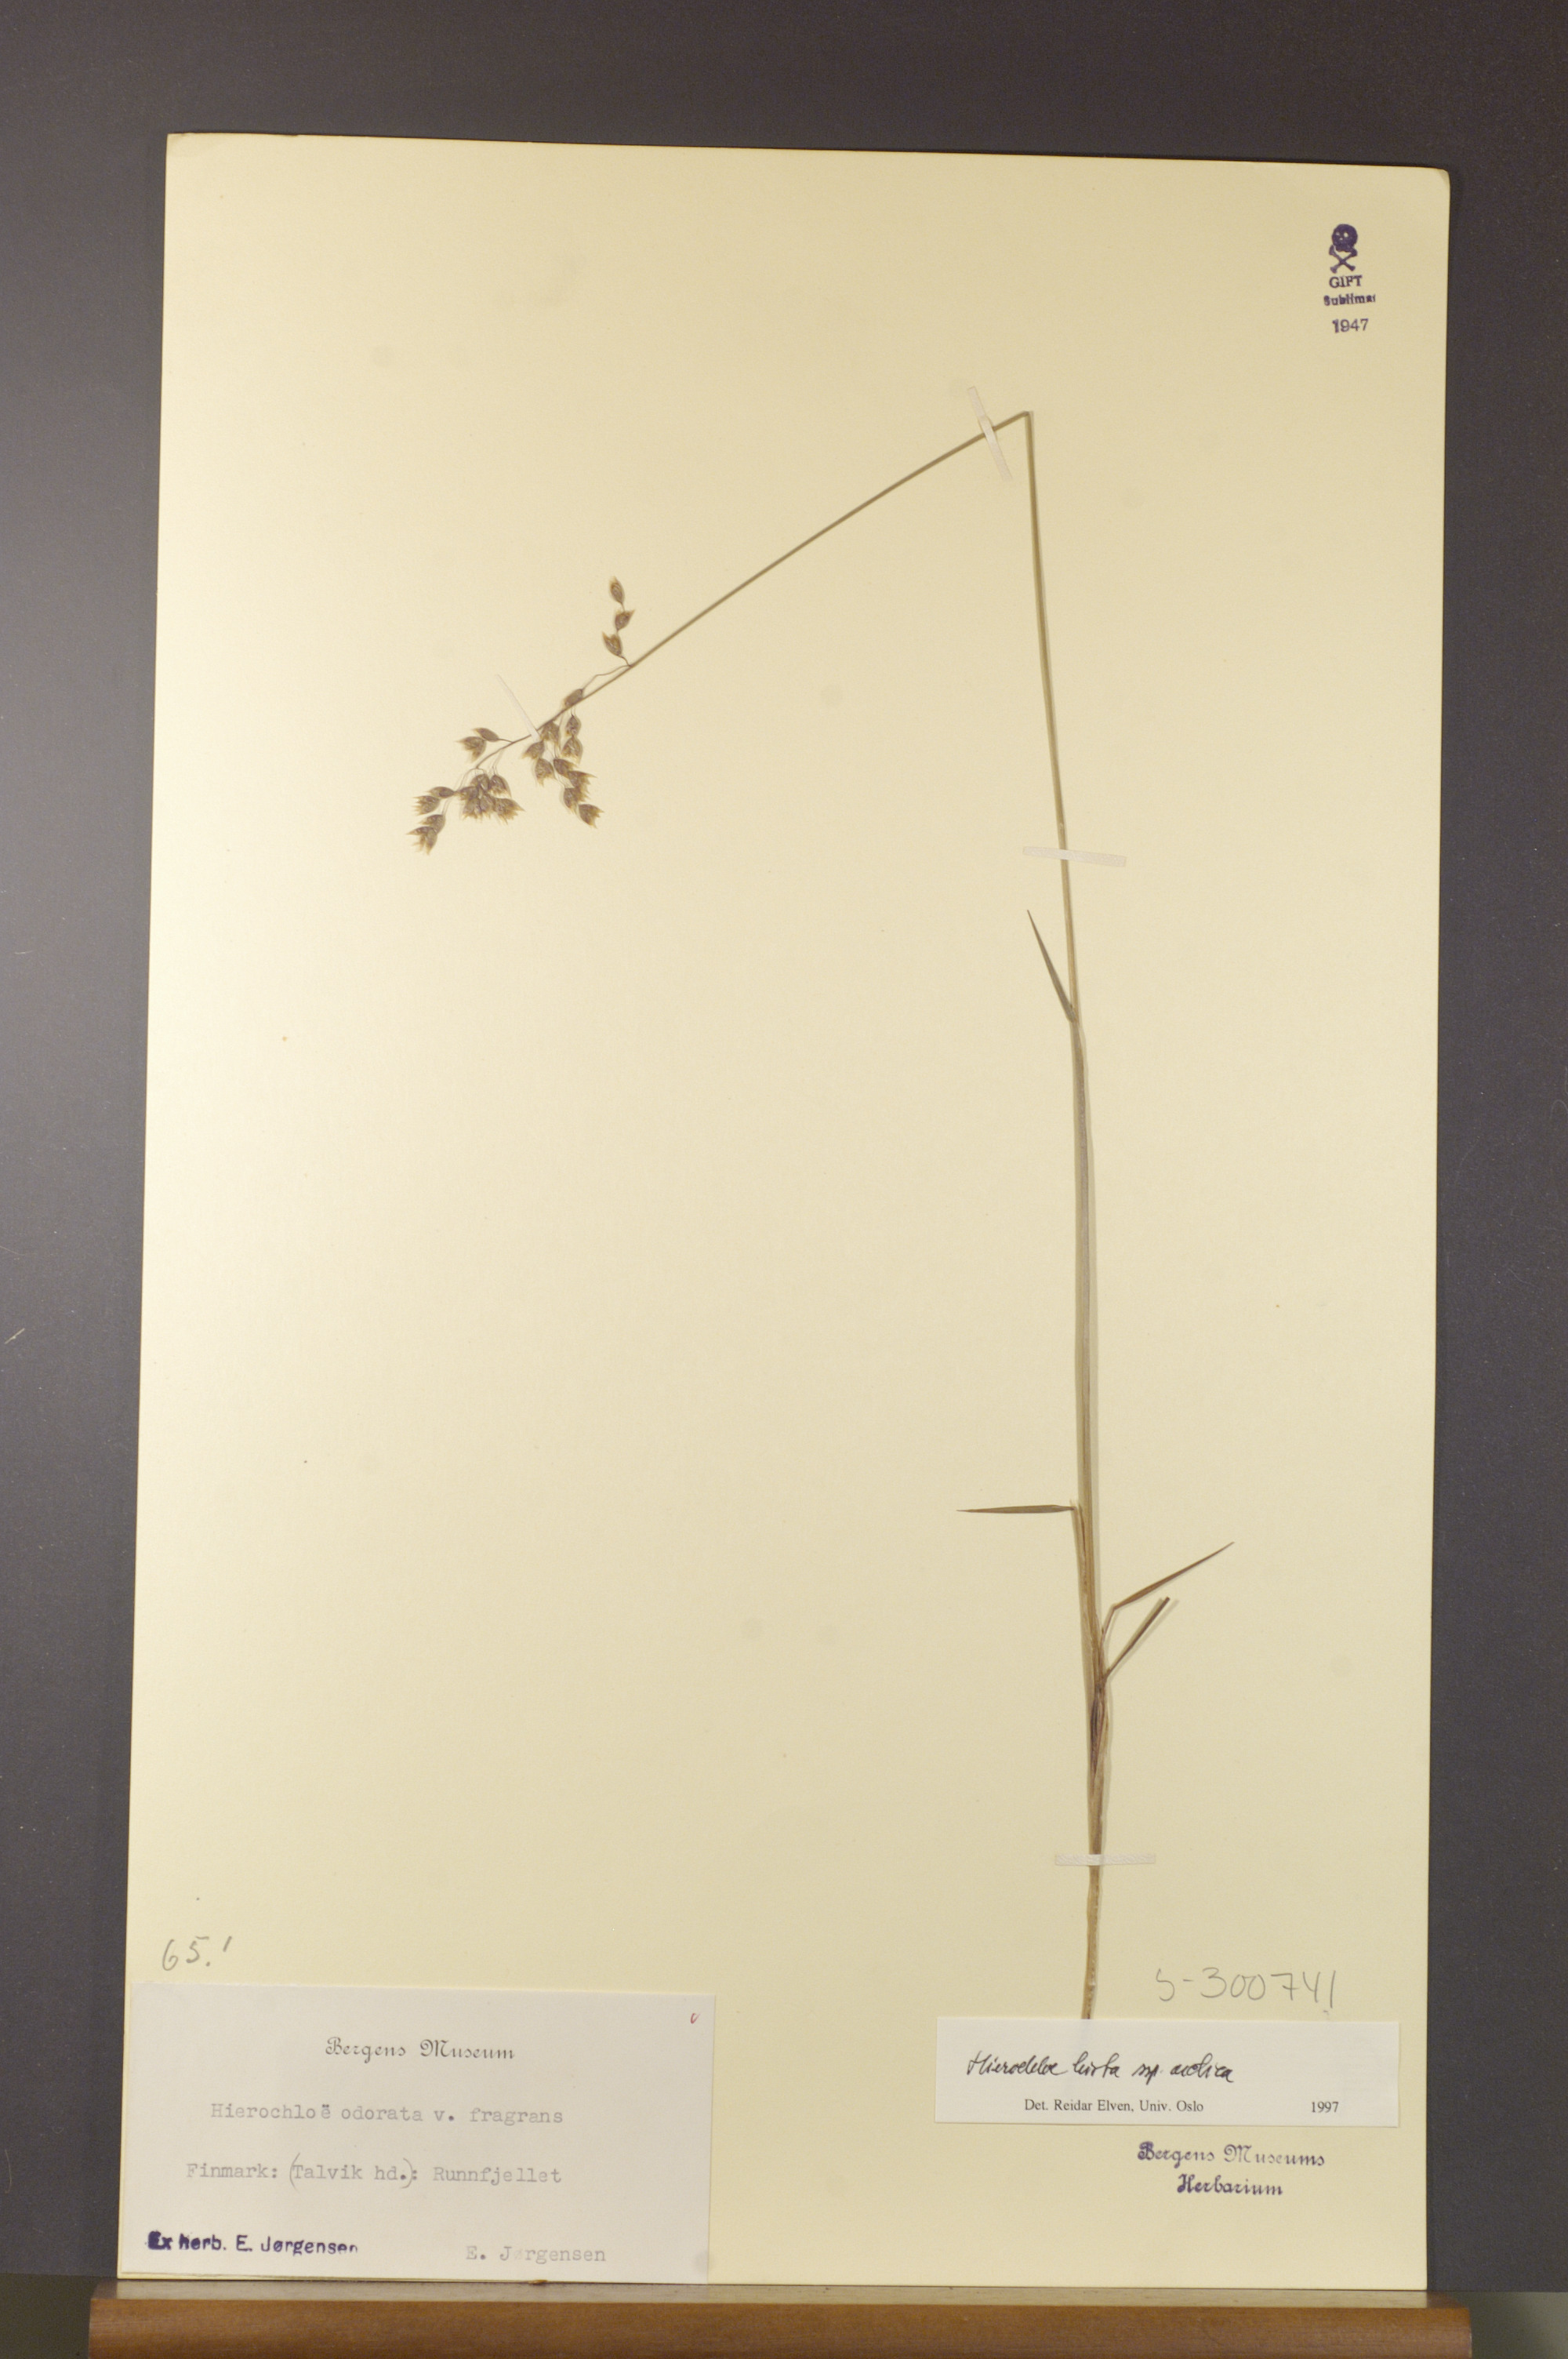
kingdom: Plantae
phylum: Tracheophyta
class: Liliopsida
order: Poales
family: Poaceae
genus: Anthoxanthum
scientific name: Anthoxanthum nitens
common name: Holy grass
